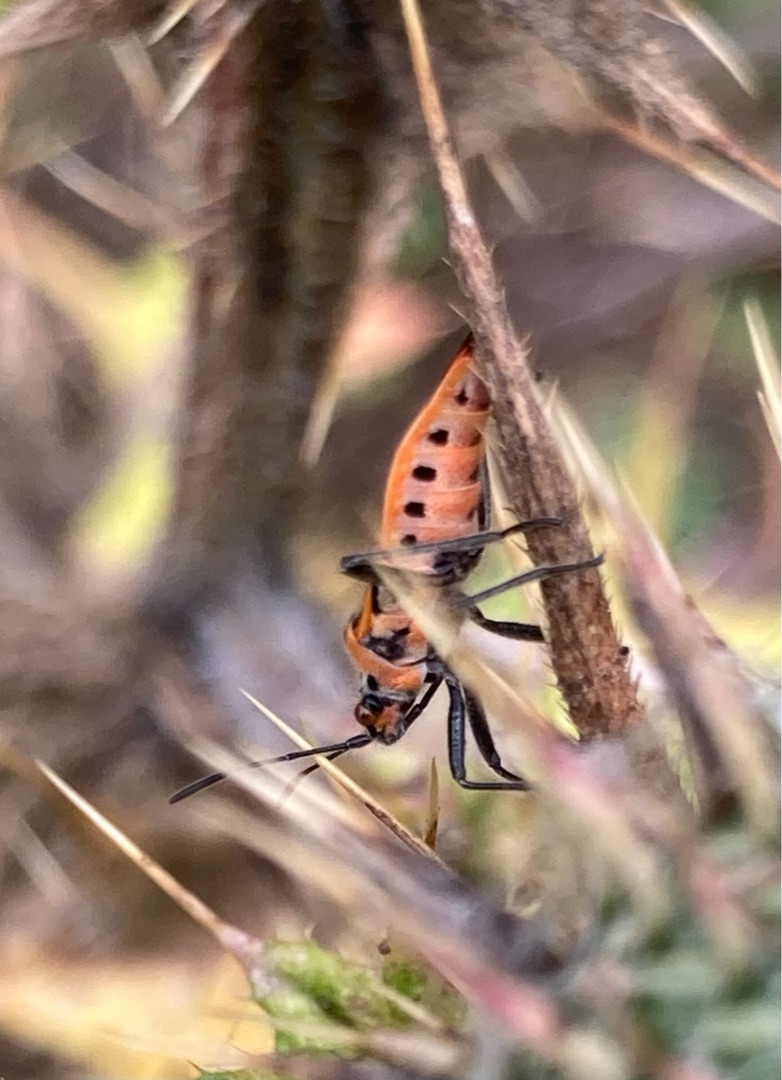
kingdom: Animalia
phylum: Arthropoda
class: Insecta
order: Hemiptera
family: Rhopalidae
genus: Corizus
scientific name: Corizus hyoscyami
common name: Rød kanttæge
